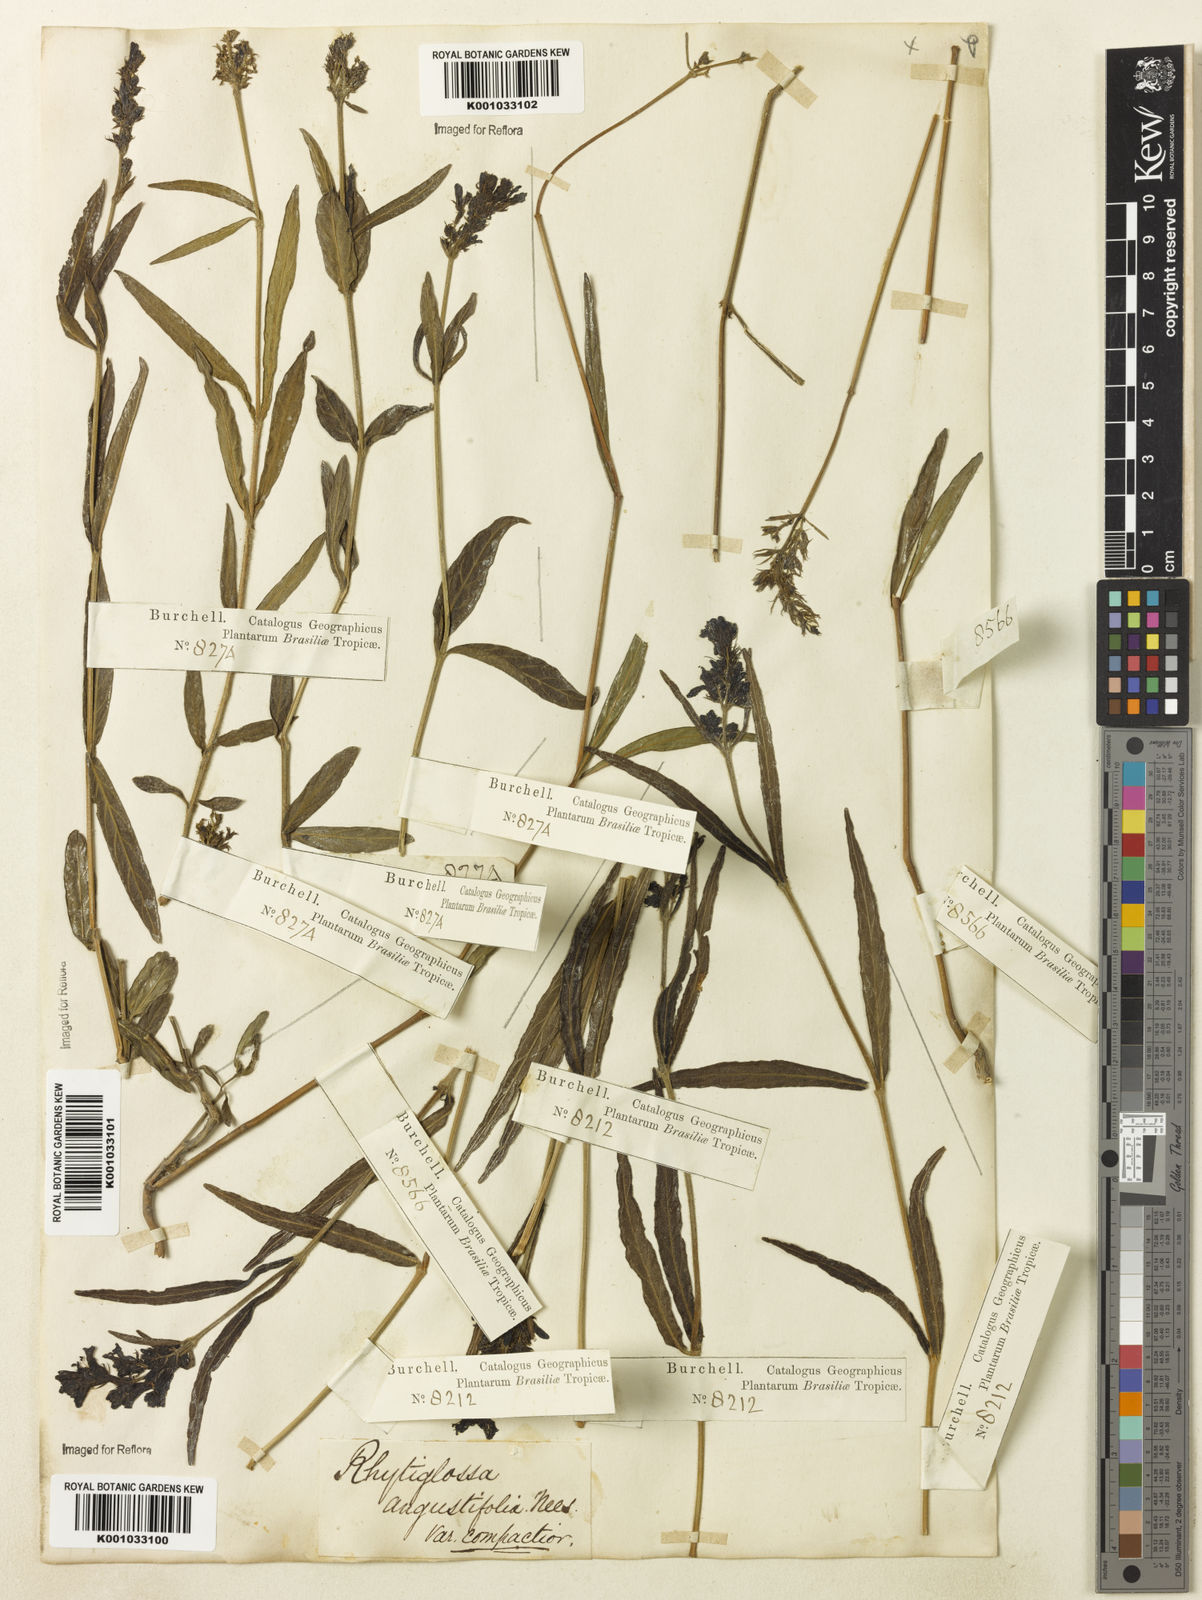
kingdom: Plantae
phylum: Tracheophyta
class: Magnoliopsida
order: Lamiales
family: Acanthaceae
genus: Dianthera
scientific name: Dianthera angustifolia
